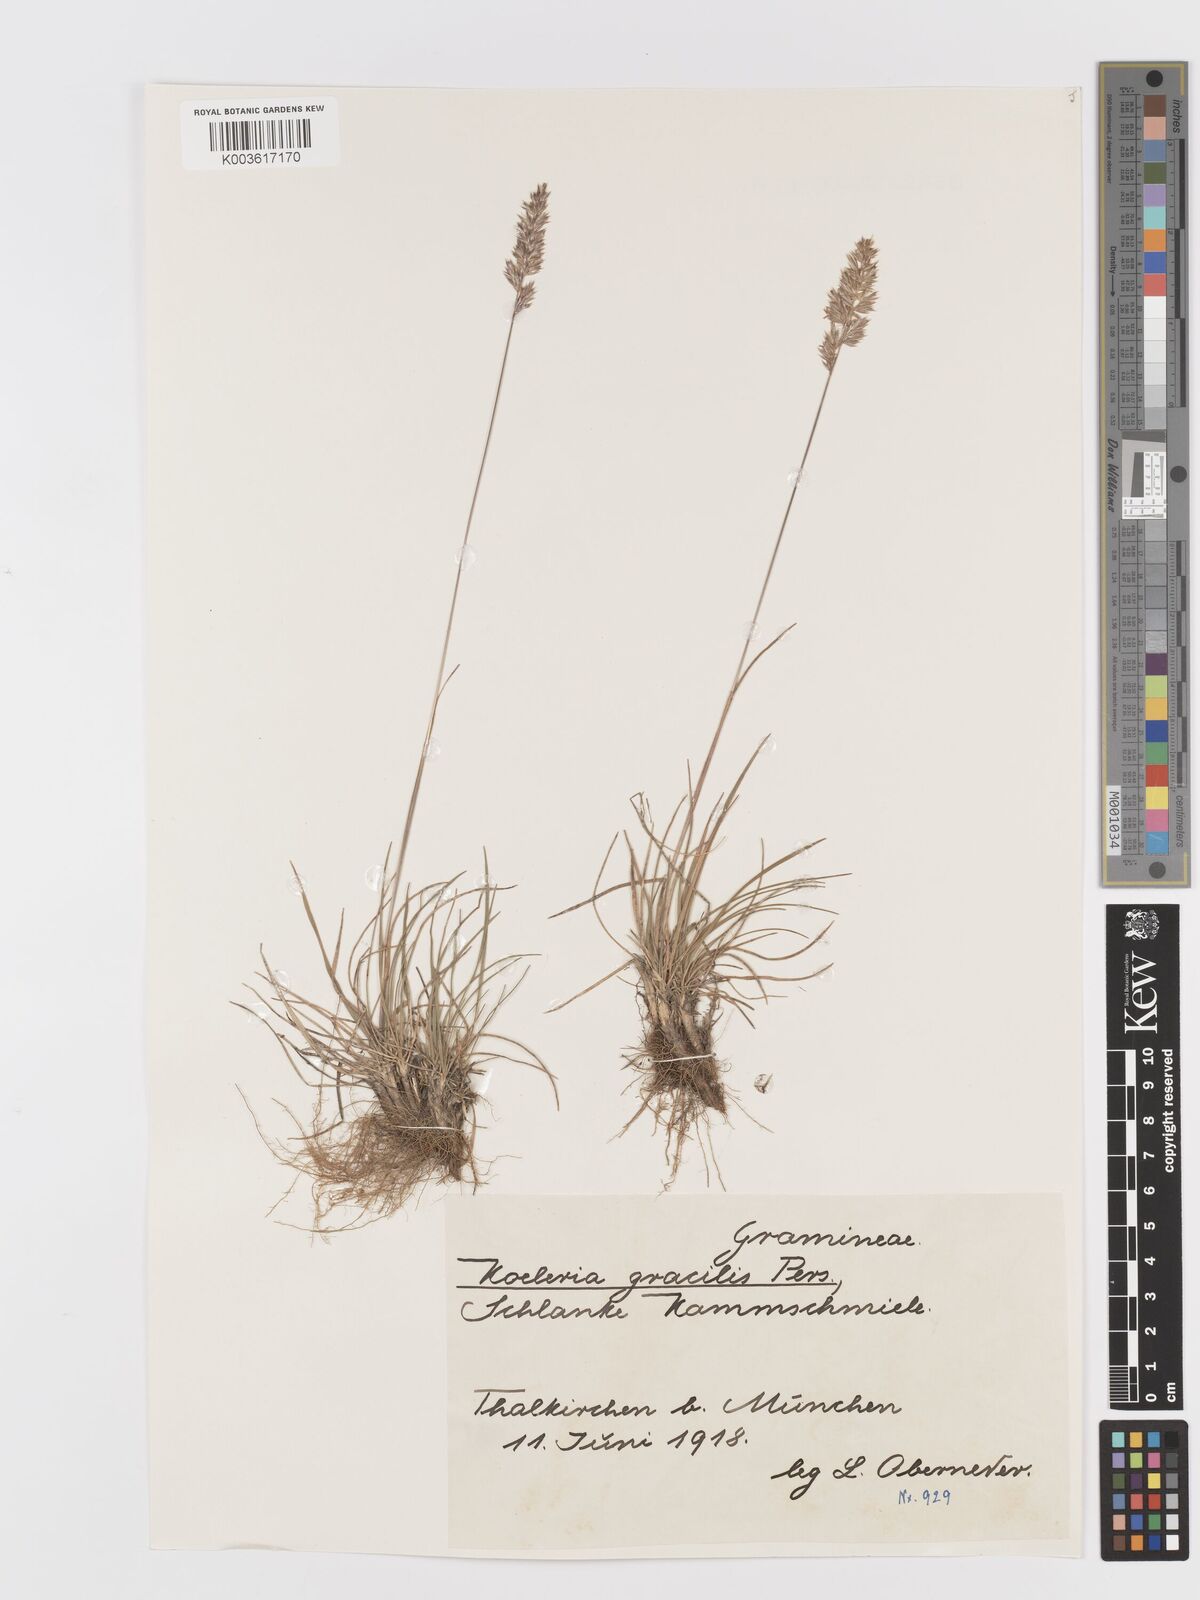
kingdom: Plantae
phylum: Tracheophyta
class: Liliopsida
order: Poales
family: Poaceae
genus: Koeleria
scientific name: Koeleria macrantha
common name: Crested hair-grass
